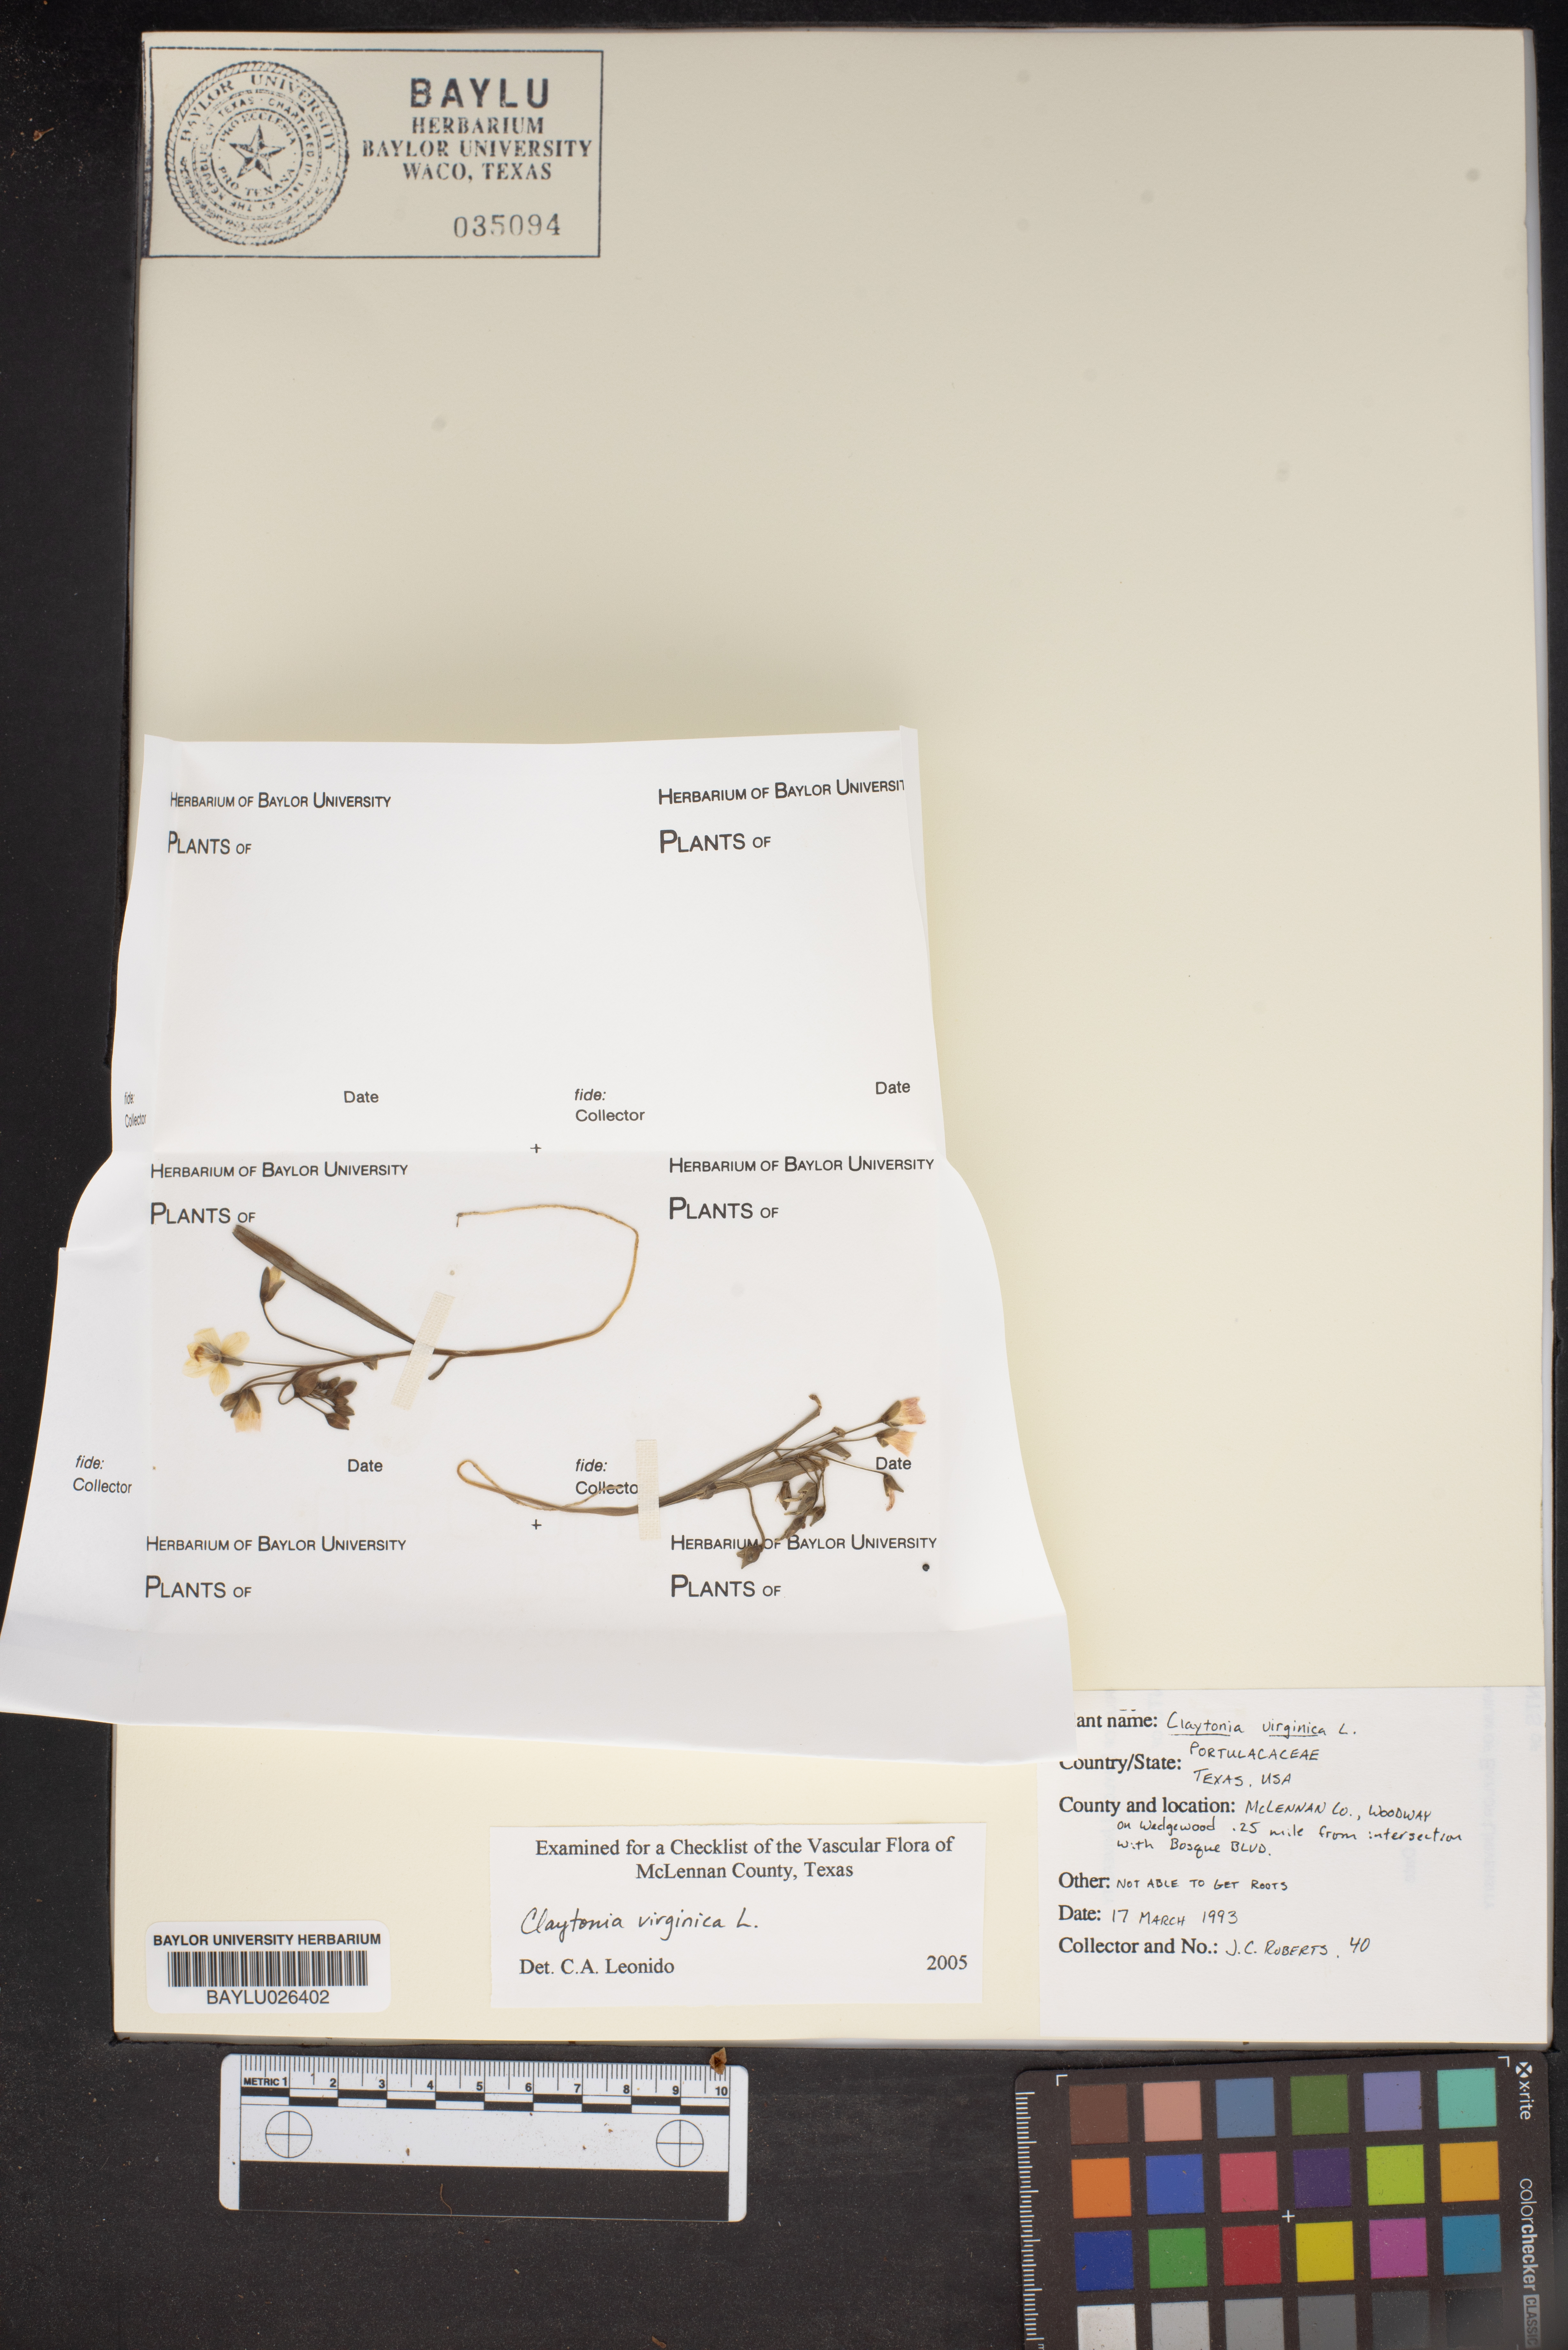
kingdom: Plantae
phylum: Tracheophyta
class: Magnoliopsida
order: Caryophyllales
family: Montiaceae
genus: Claytonia
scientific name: Claytonia virginica
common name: Virginia springbeauty
